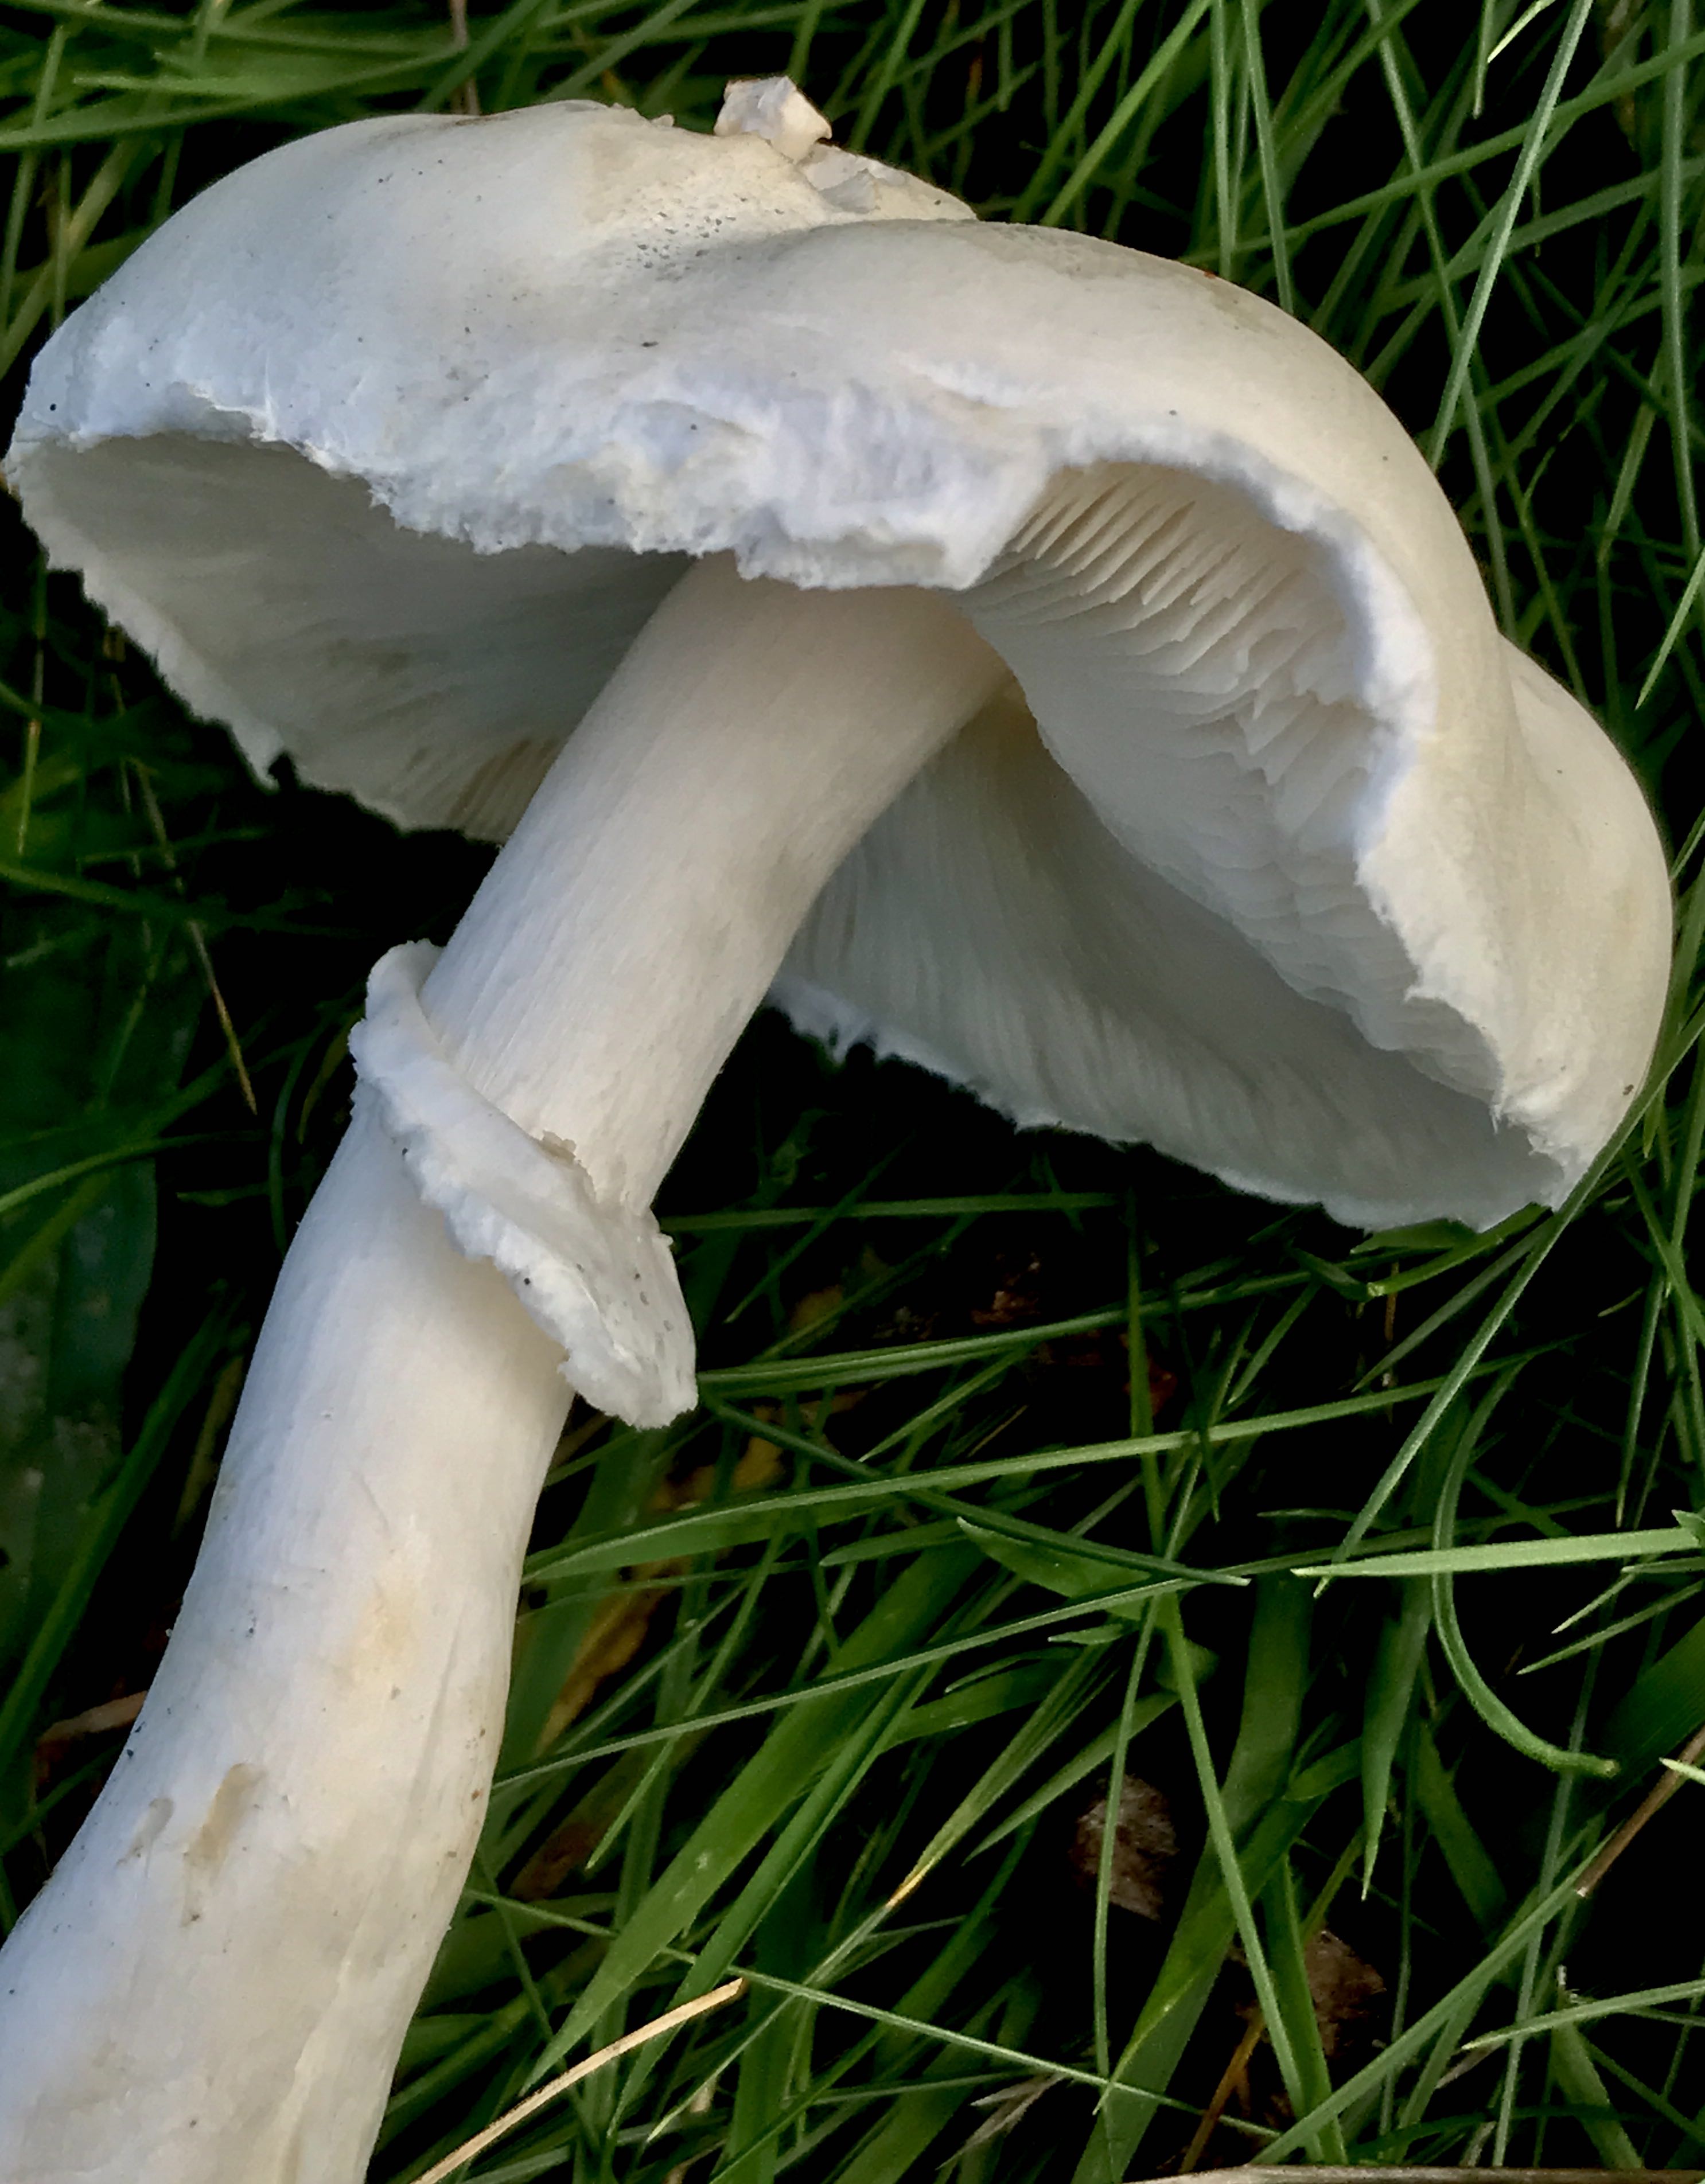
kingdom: Fungi
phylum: Basidiomycota
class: Agaricomycetes
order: Agaricales
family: Agaricaceae
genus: Leucoagaricus
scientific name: Leucoagaricus leucothites
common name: rosabladet silkehat
